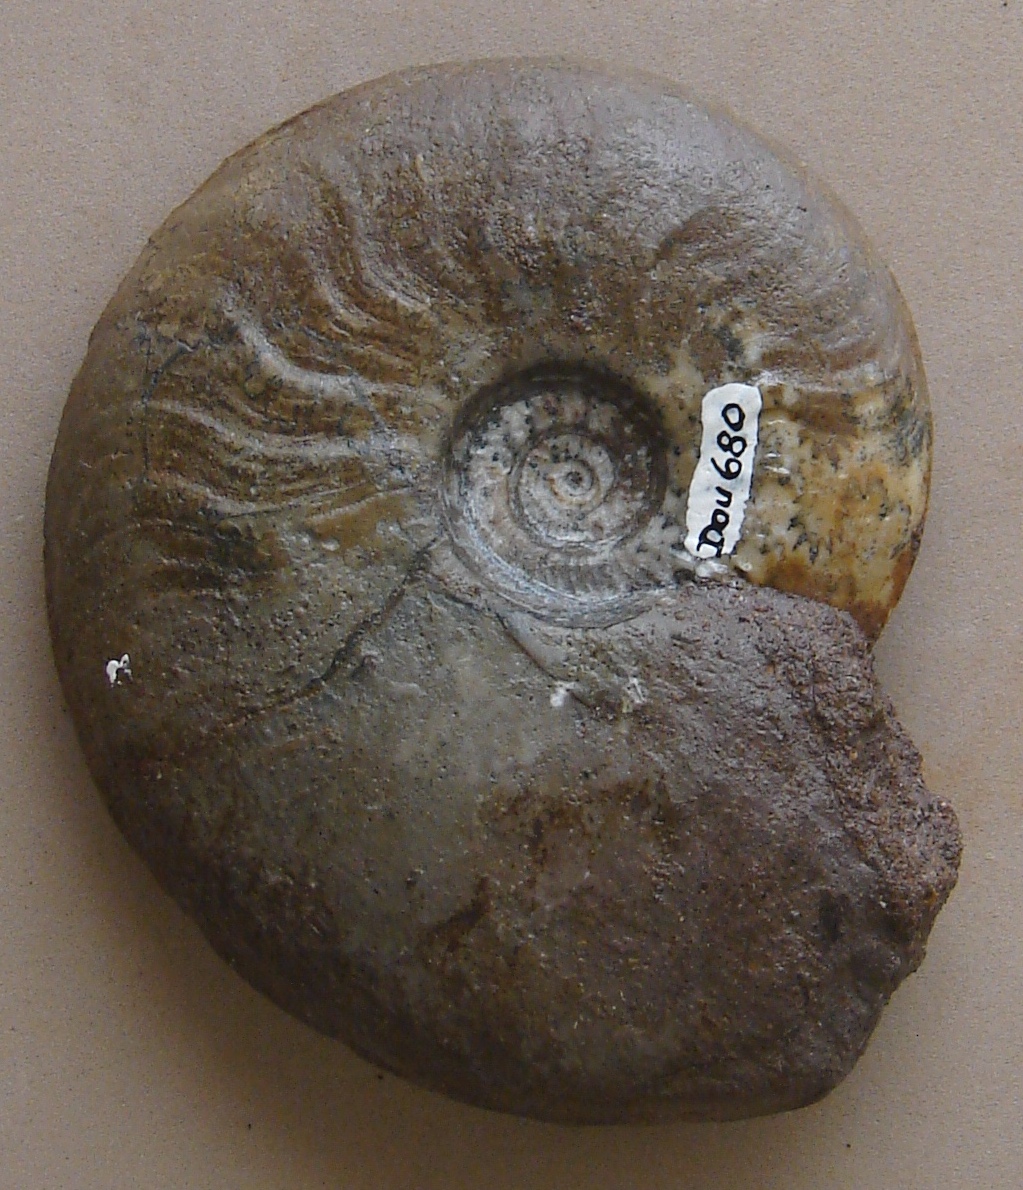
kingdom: Animalia
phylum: Mollusca
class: Cephalopoda
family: Graphoceratidae
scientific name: Graphoceratidae
